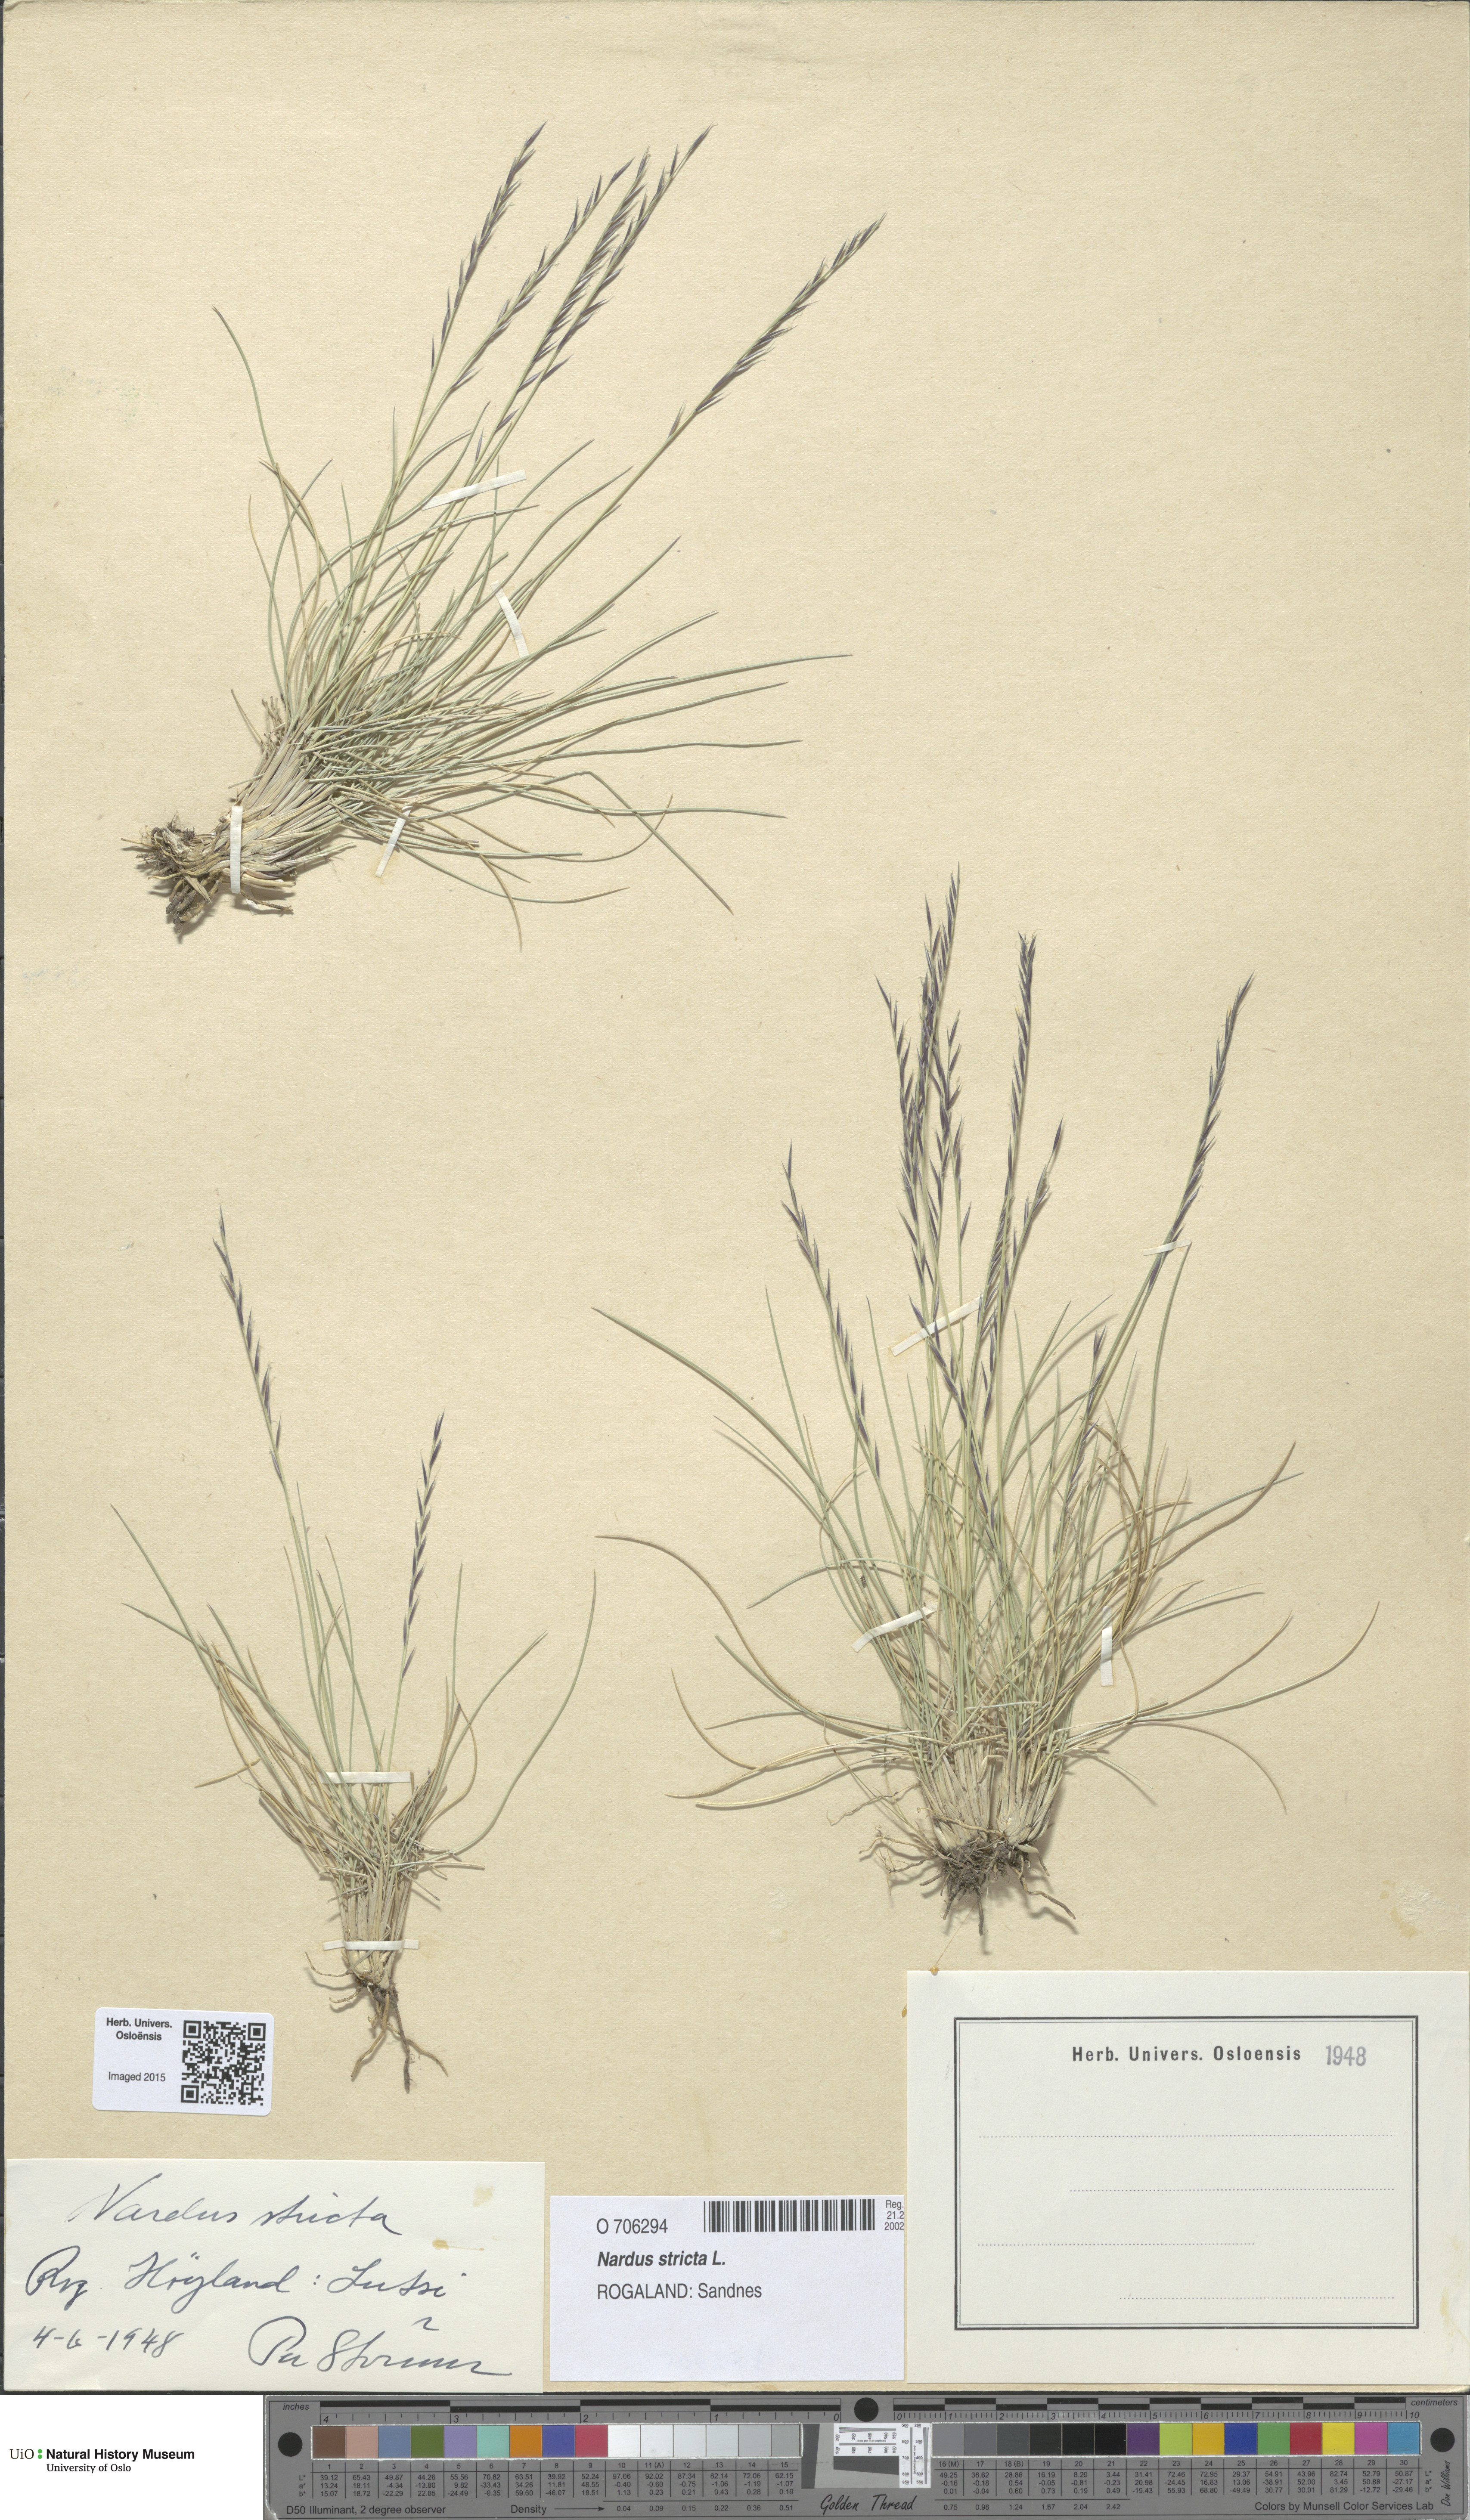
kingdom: Plantae
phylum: Tracheophyta
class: Liliopsida
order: Poales
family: Poaceae
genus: Nardus
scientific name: Nardus stricta
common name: Mat-grass
